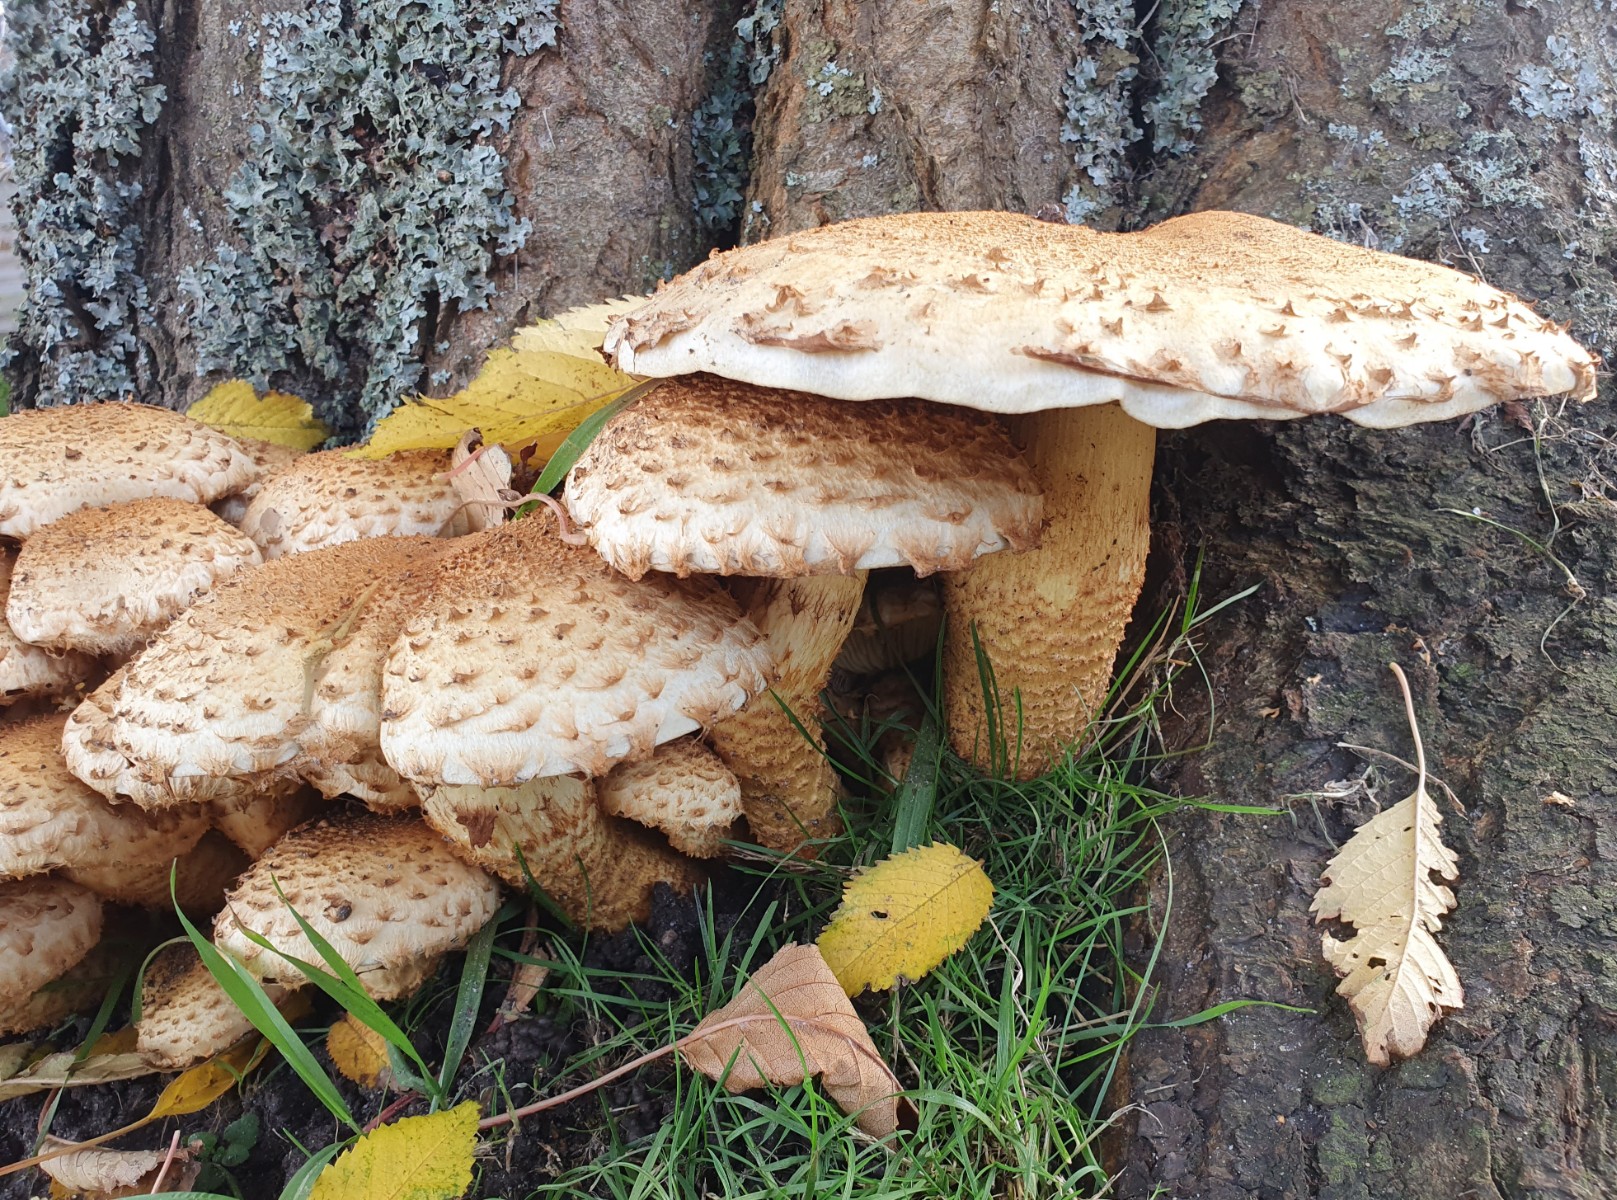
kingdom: Fungi
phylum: Basidiomycota
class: Agaricomycetes
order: Agaricales
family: Strophariaceae
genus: Pholiota
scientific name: Pholiota squarrosa
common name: krumskællet skælhat
